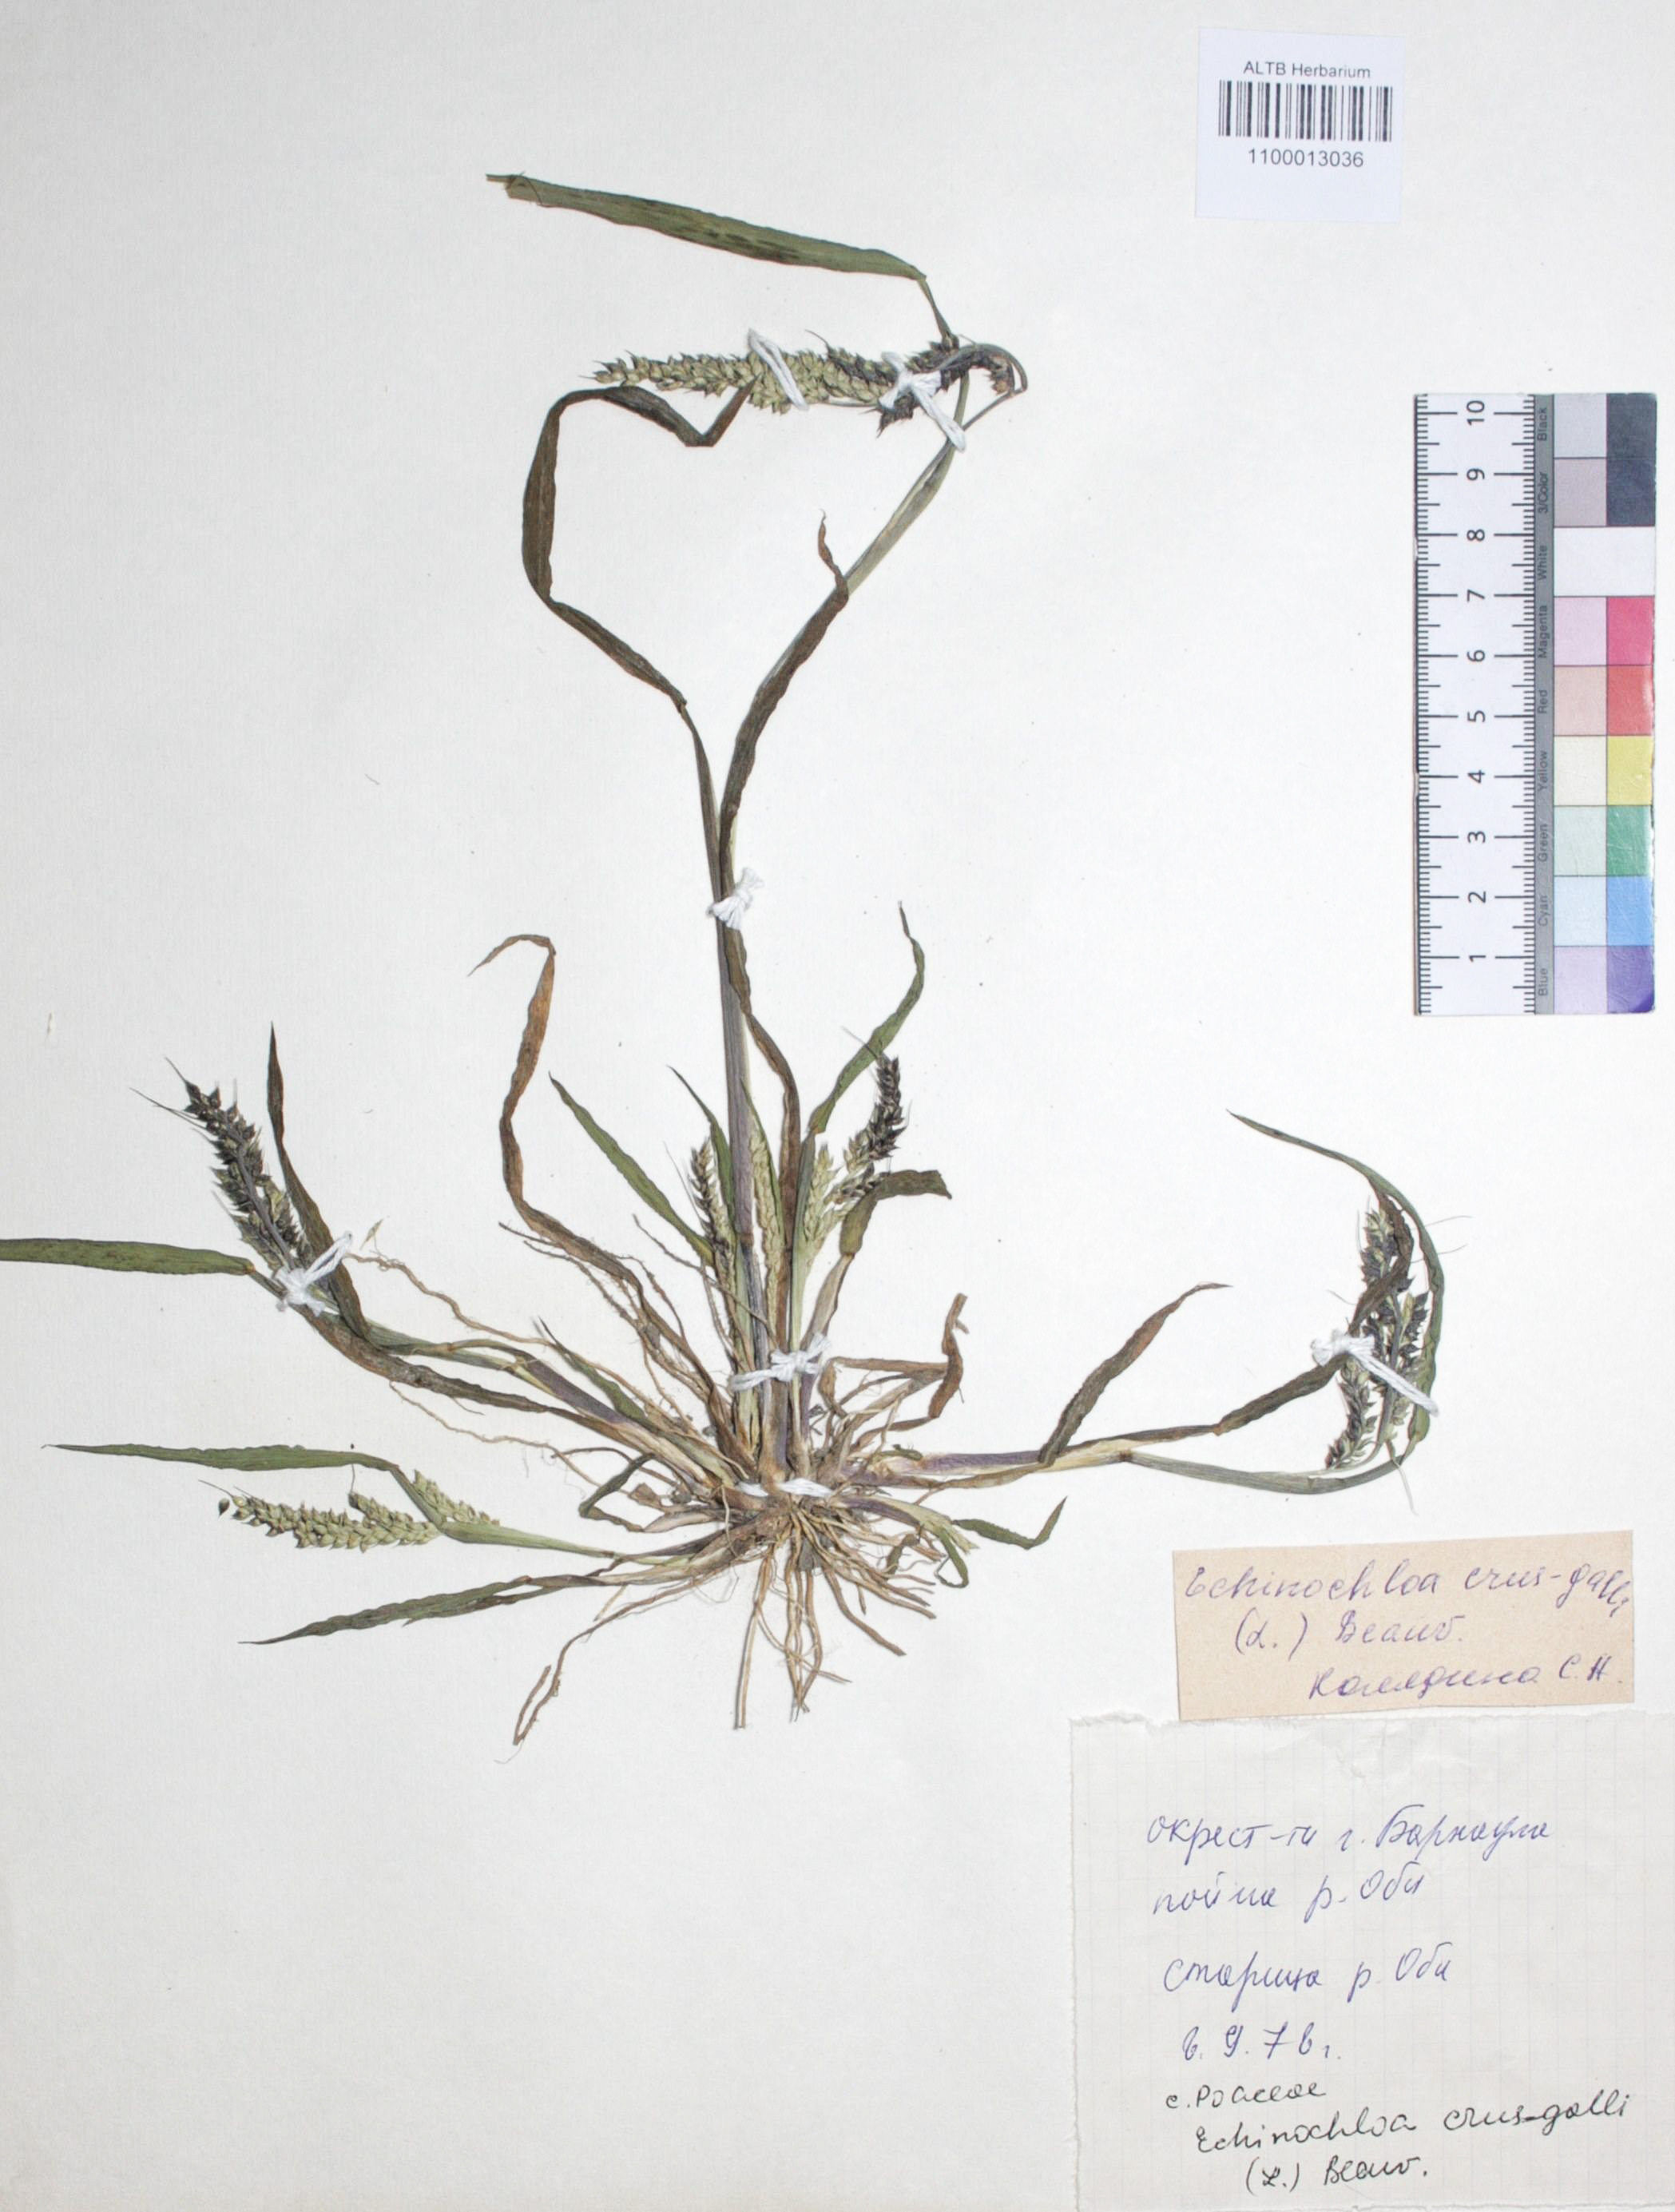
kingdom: Plantae
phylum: Tracheophyta
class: Liliopsida
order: Poales
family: Poaceae
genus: Echinochloa
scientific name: Echinochloa crus-galli
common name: Cockspur
